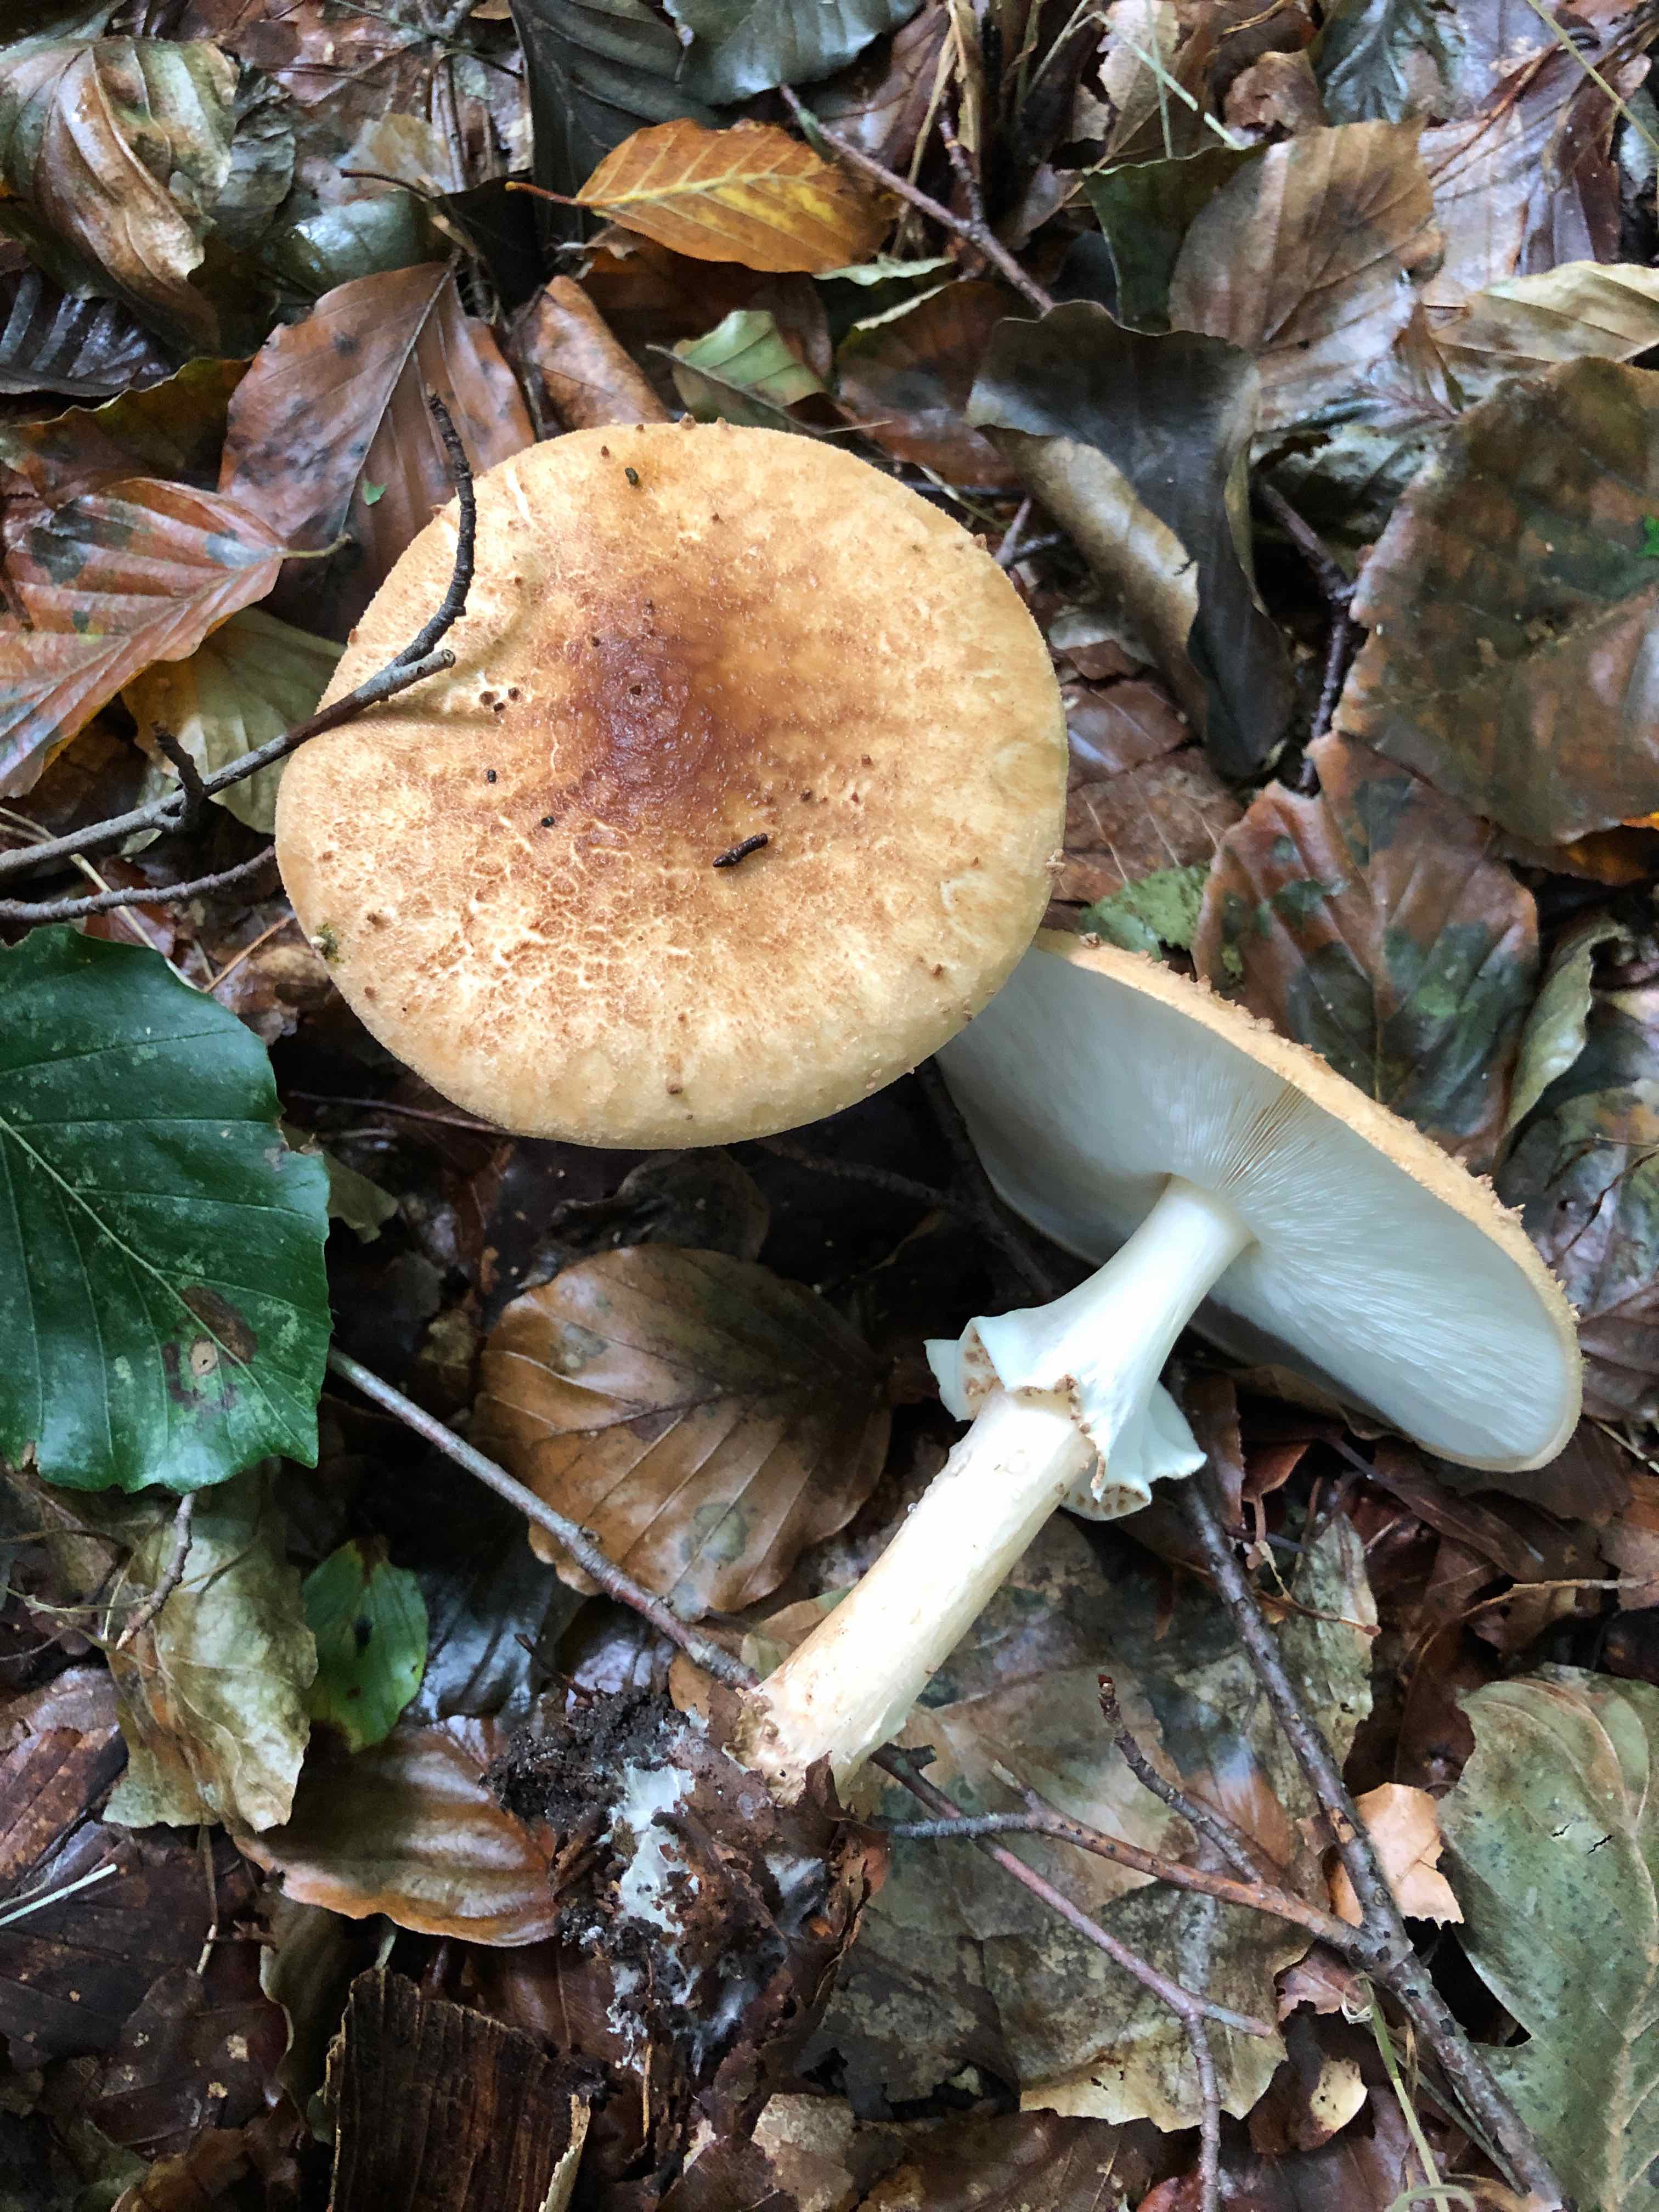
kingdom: Fungi
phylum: Basidiomycota
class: Agaricomycetes
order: Agaricales
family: Agaricaceae
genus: Echinoderma
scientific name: Echinoderma asperum
